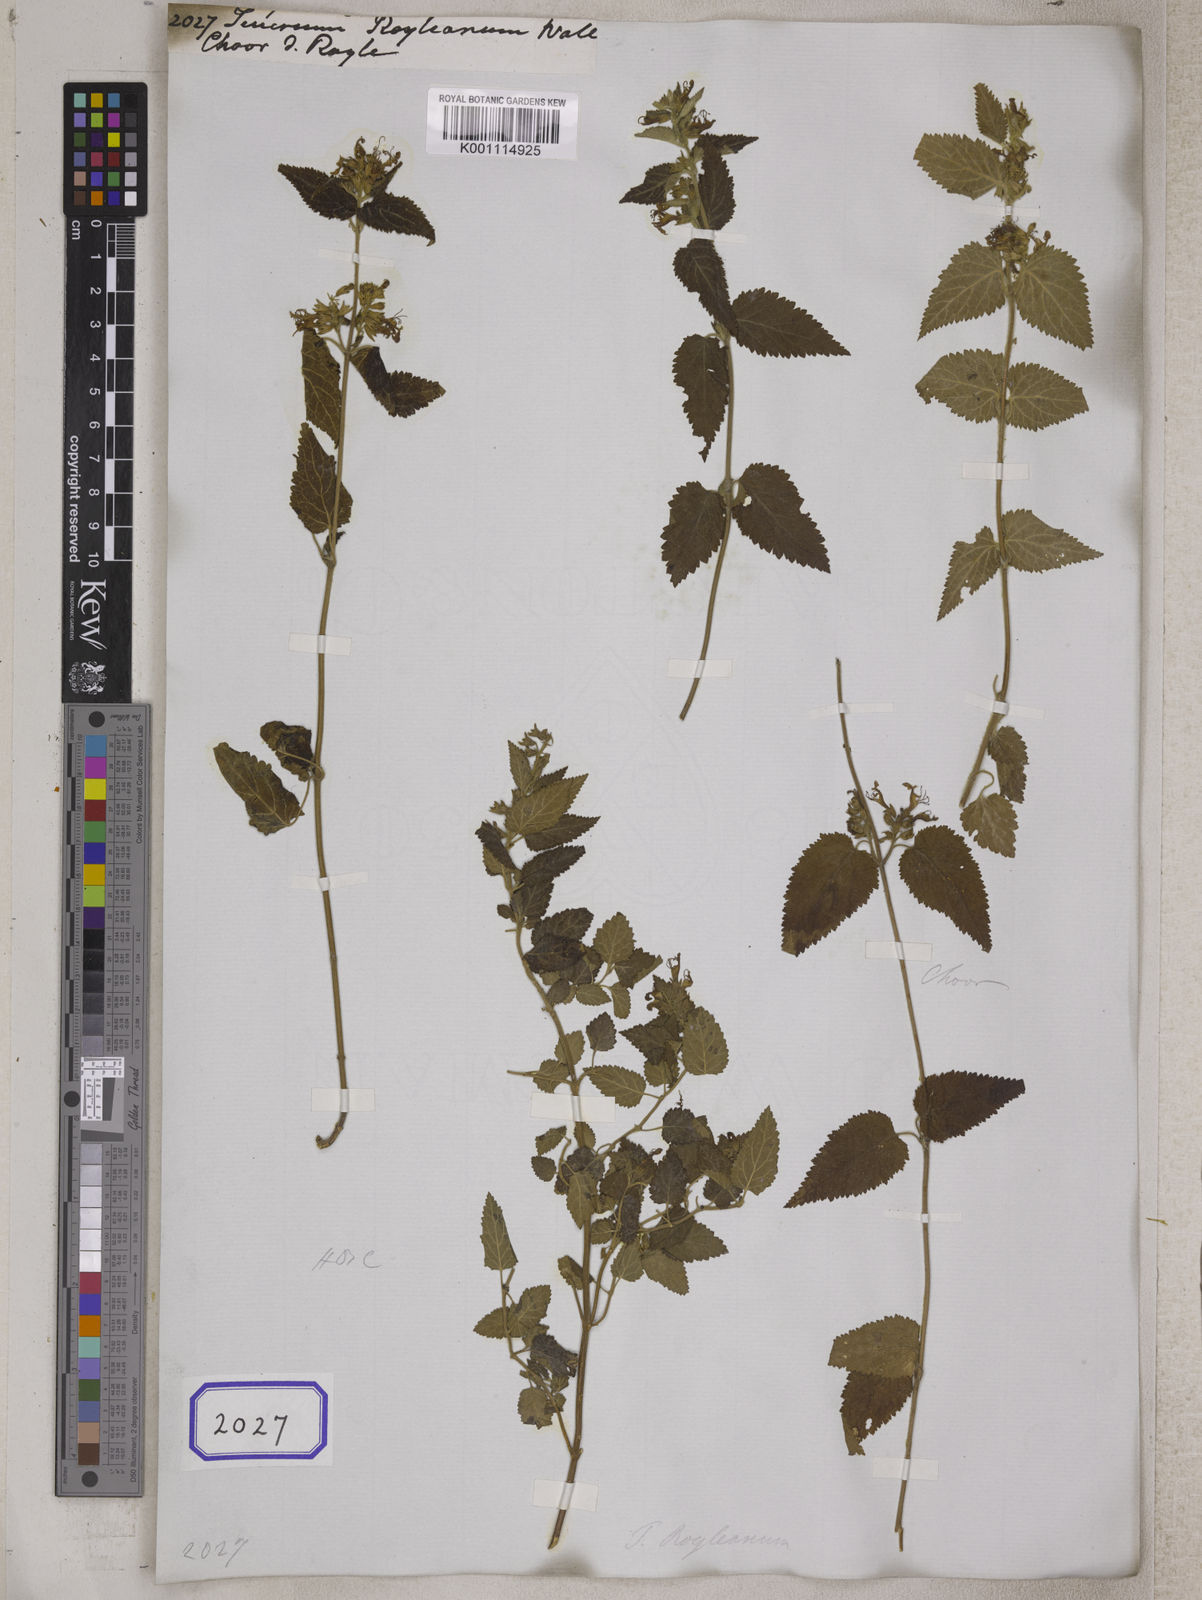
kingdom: Plantae
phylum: Tracheophyta
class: Magnoliopsida
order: Lamiales
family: Lamiaceae
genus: Teucrium
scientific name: Teucrium
